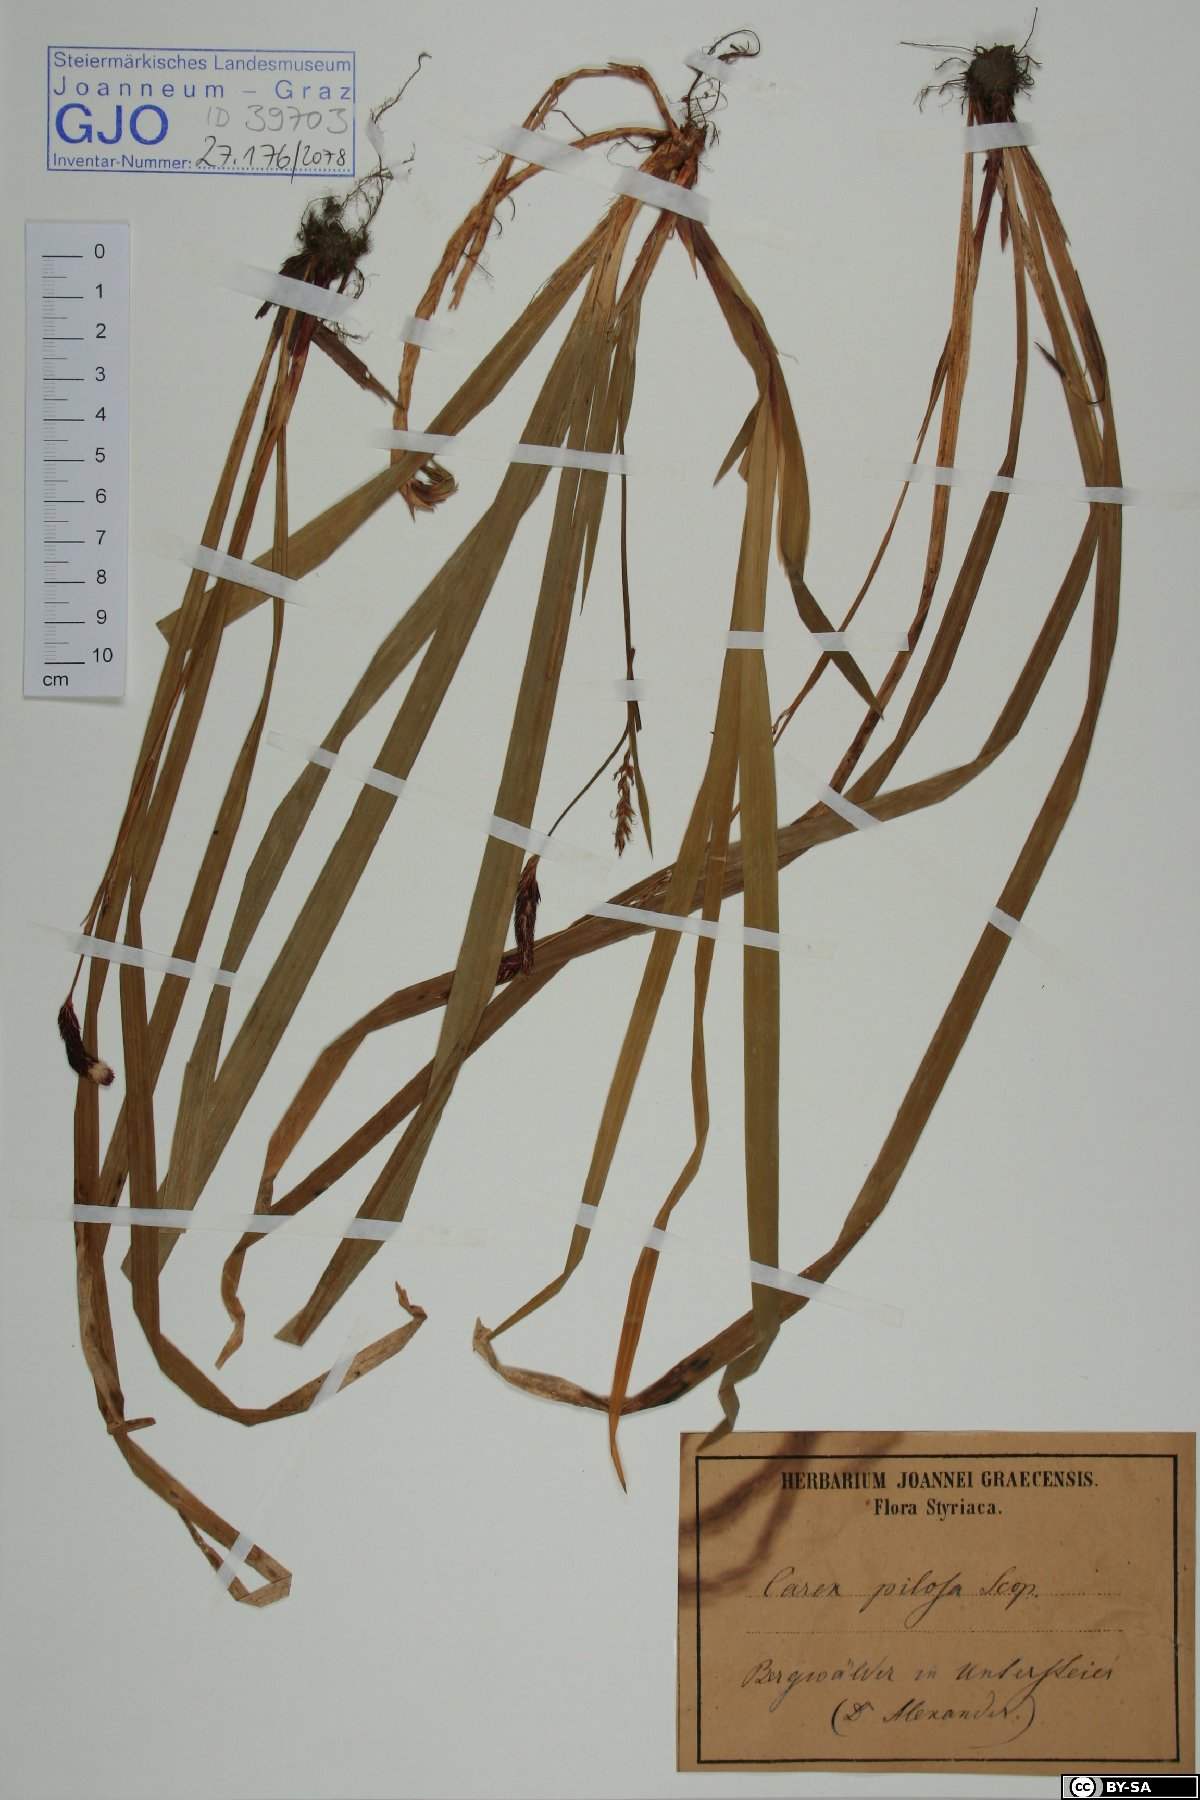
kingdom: Plantae
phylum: Tracheophyta
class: Liliopsida
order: Poales
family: Cyperaceae
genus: Carex
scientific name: Carex pilosa
